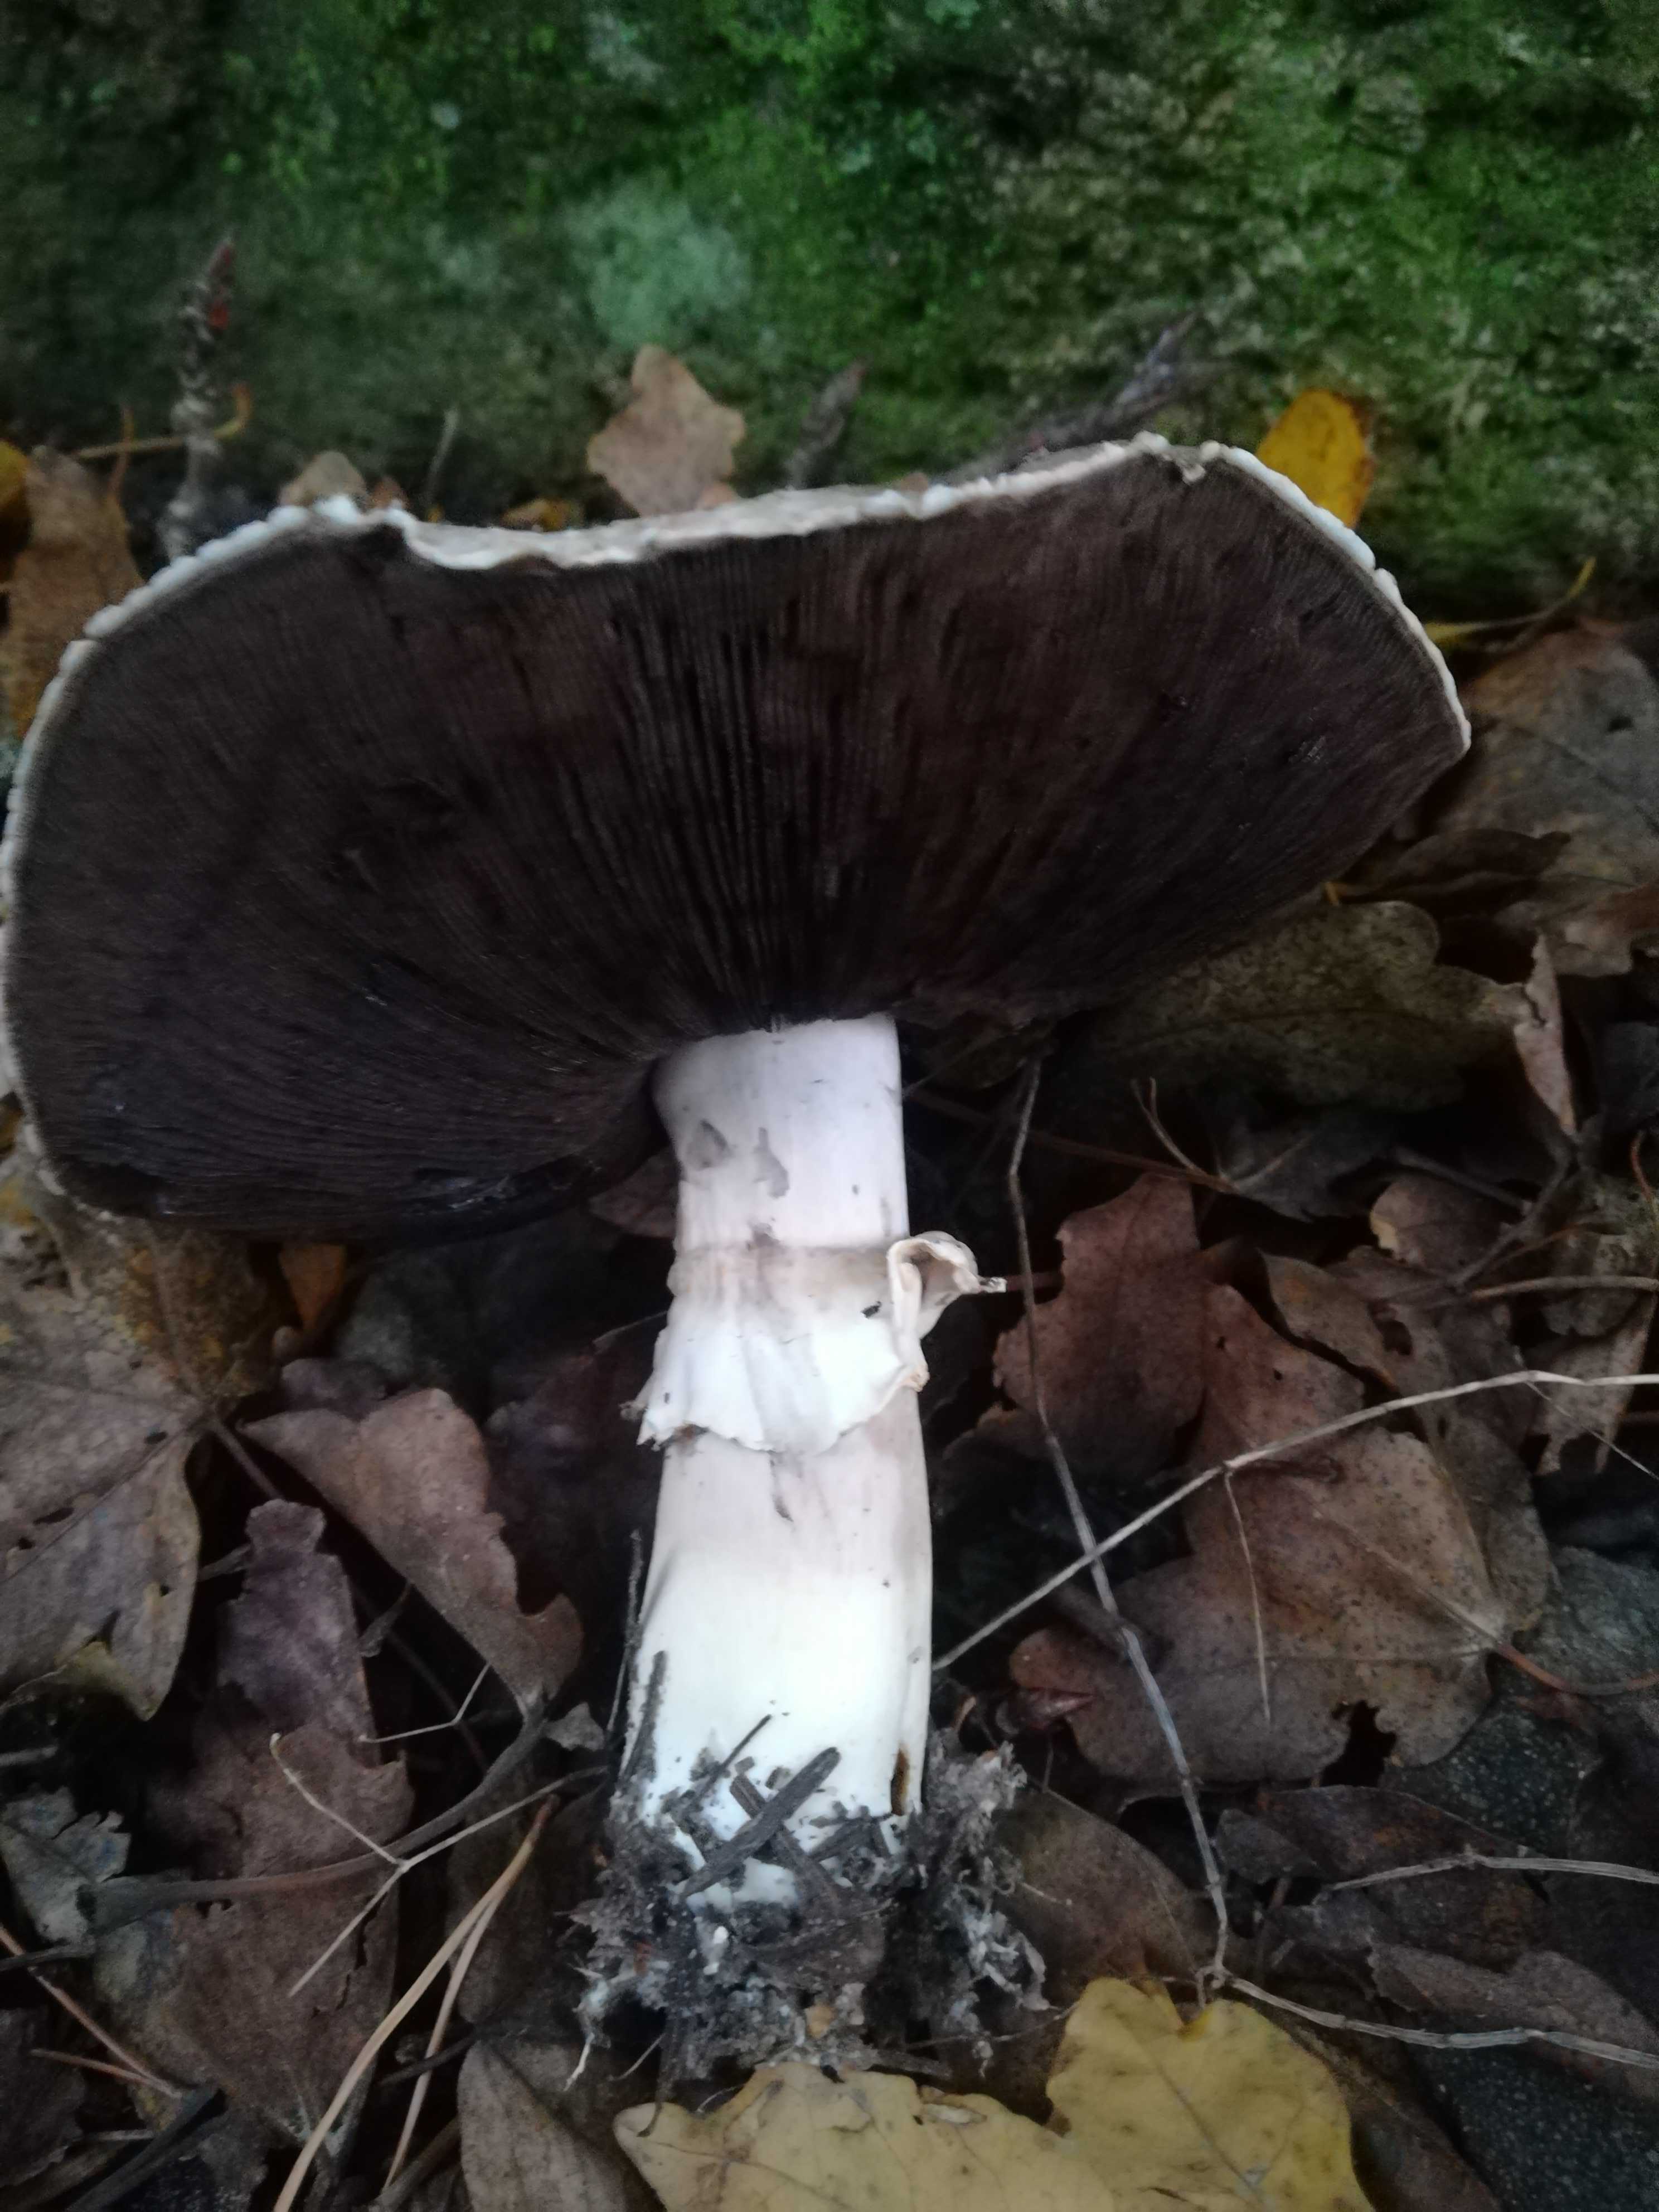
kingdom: Fungi
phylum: Basidiomycota
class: Agaricomycetes
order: Agaricales
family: Agaricaceae
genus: Agaricus
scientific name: Agaricus
